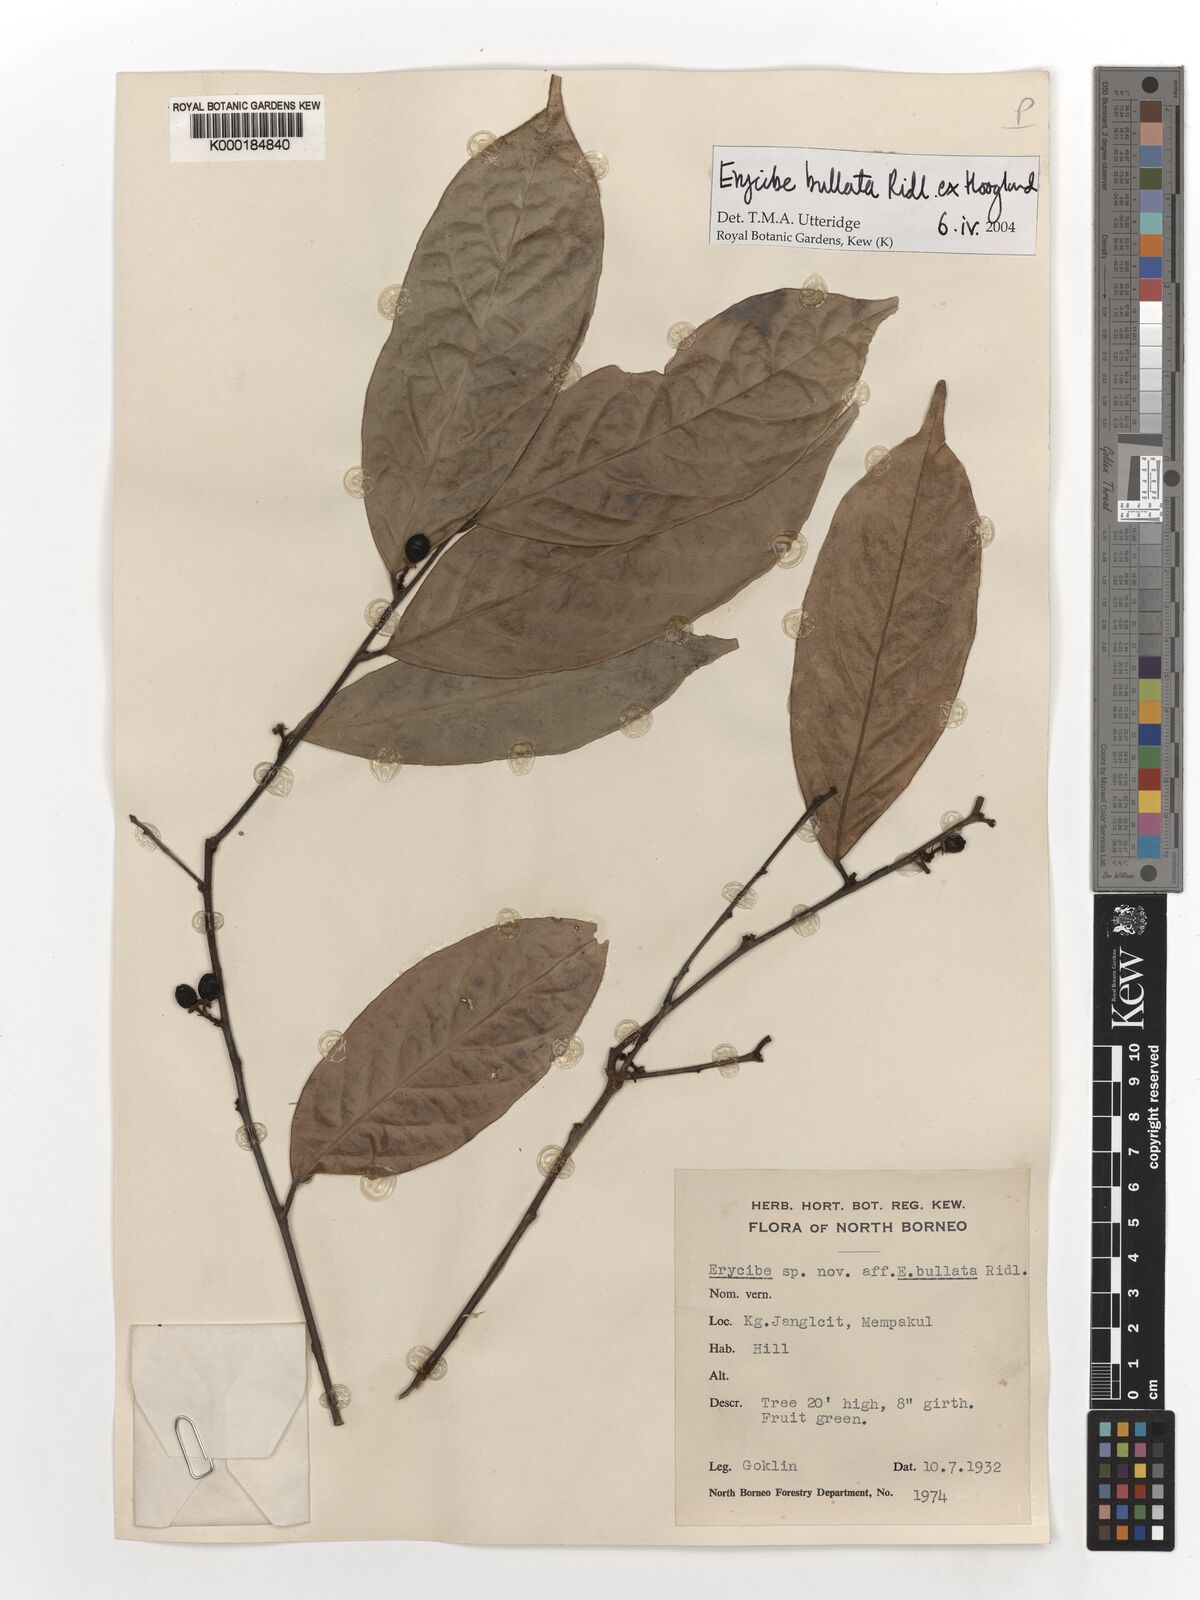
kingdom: Plantae
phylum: Tracheophyta
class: Magnoliopsida
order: Solanales
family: Convolvulaceae
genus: Erycibe
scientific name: Erycibe bullata
